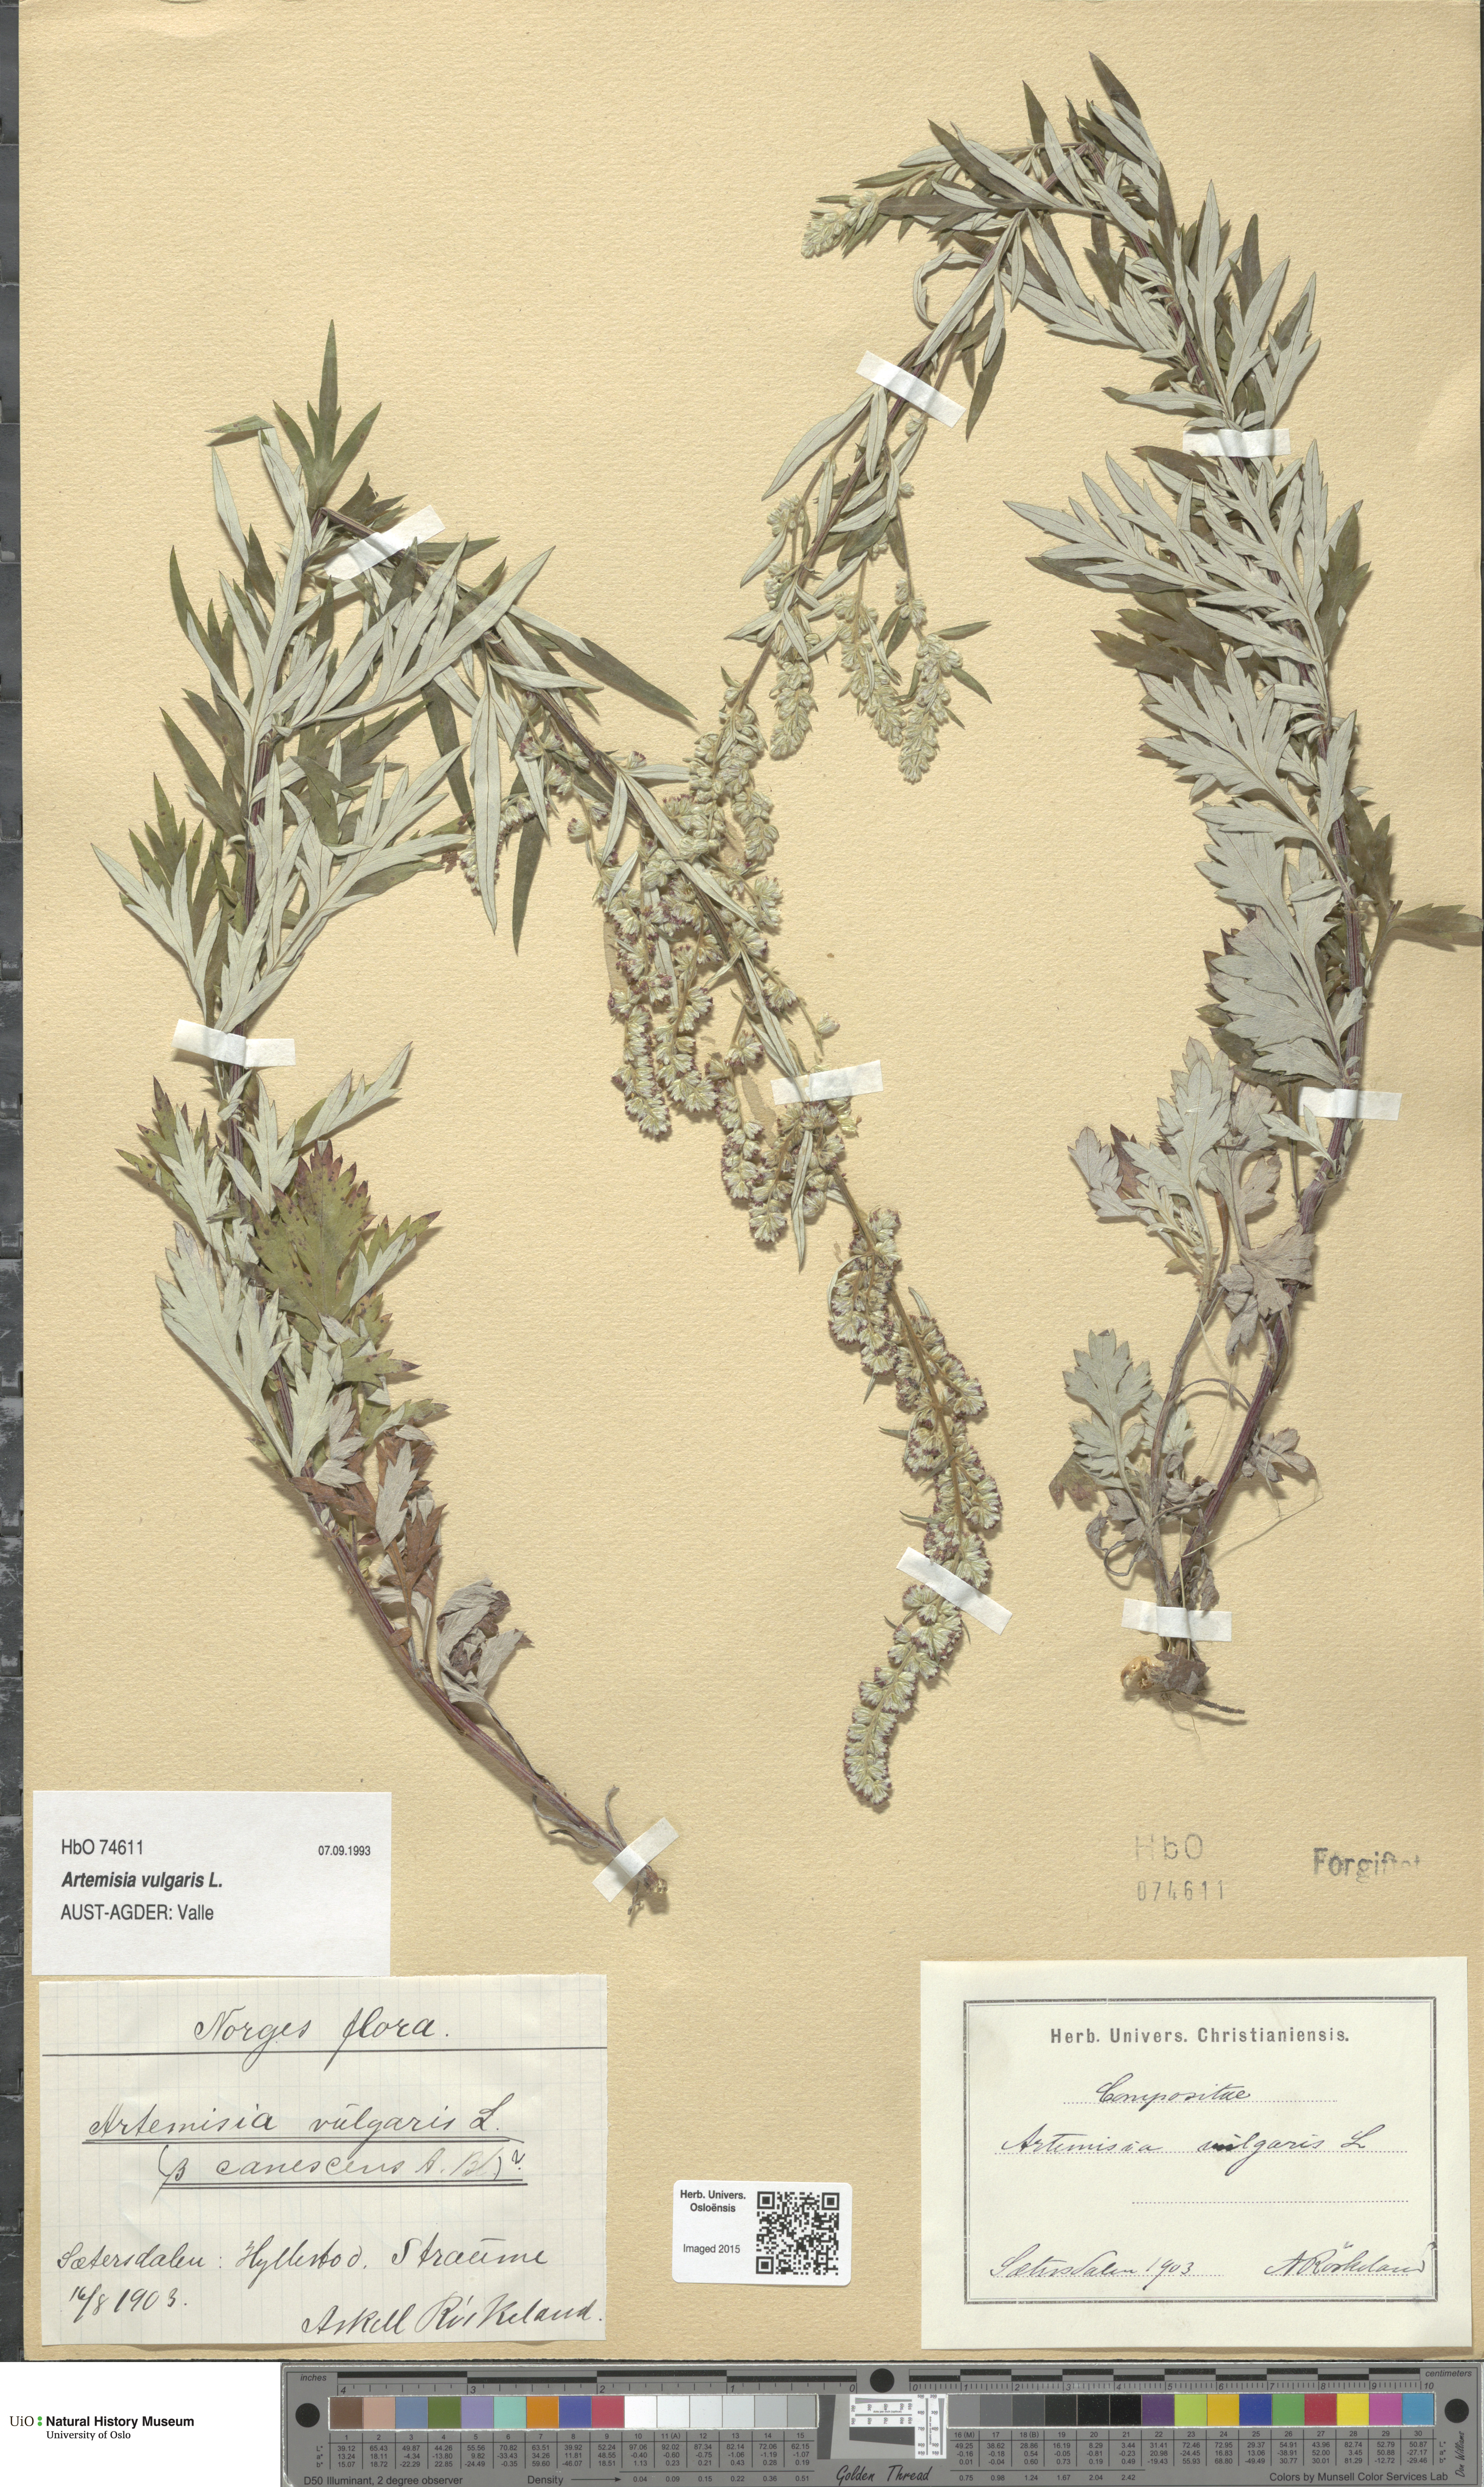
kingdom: Plantae
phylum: Tracheophyta
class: Magnoliopsida
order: Asterales
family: Asteraceae
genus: Artemisia
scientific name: Artemisia vulgaris
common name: Mugwort
